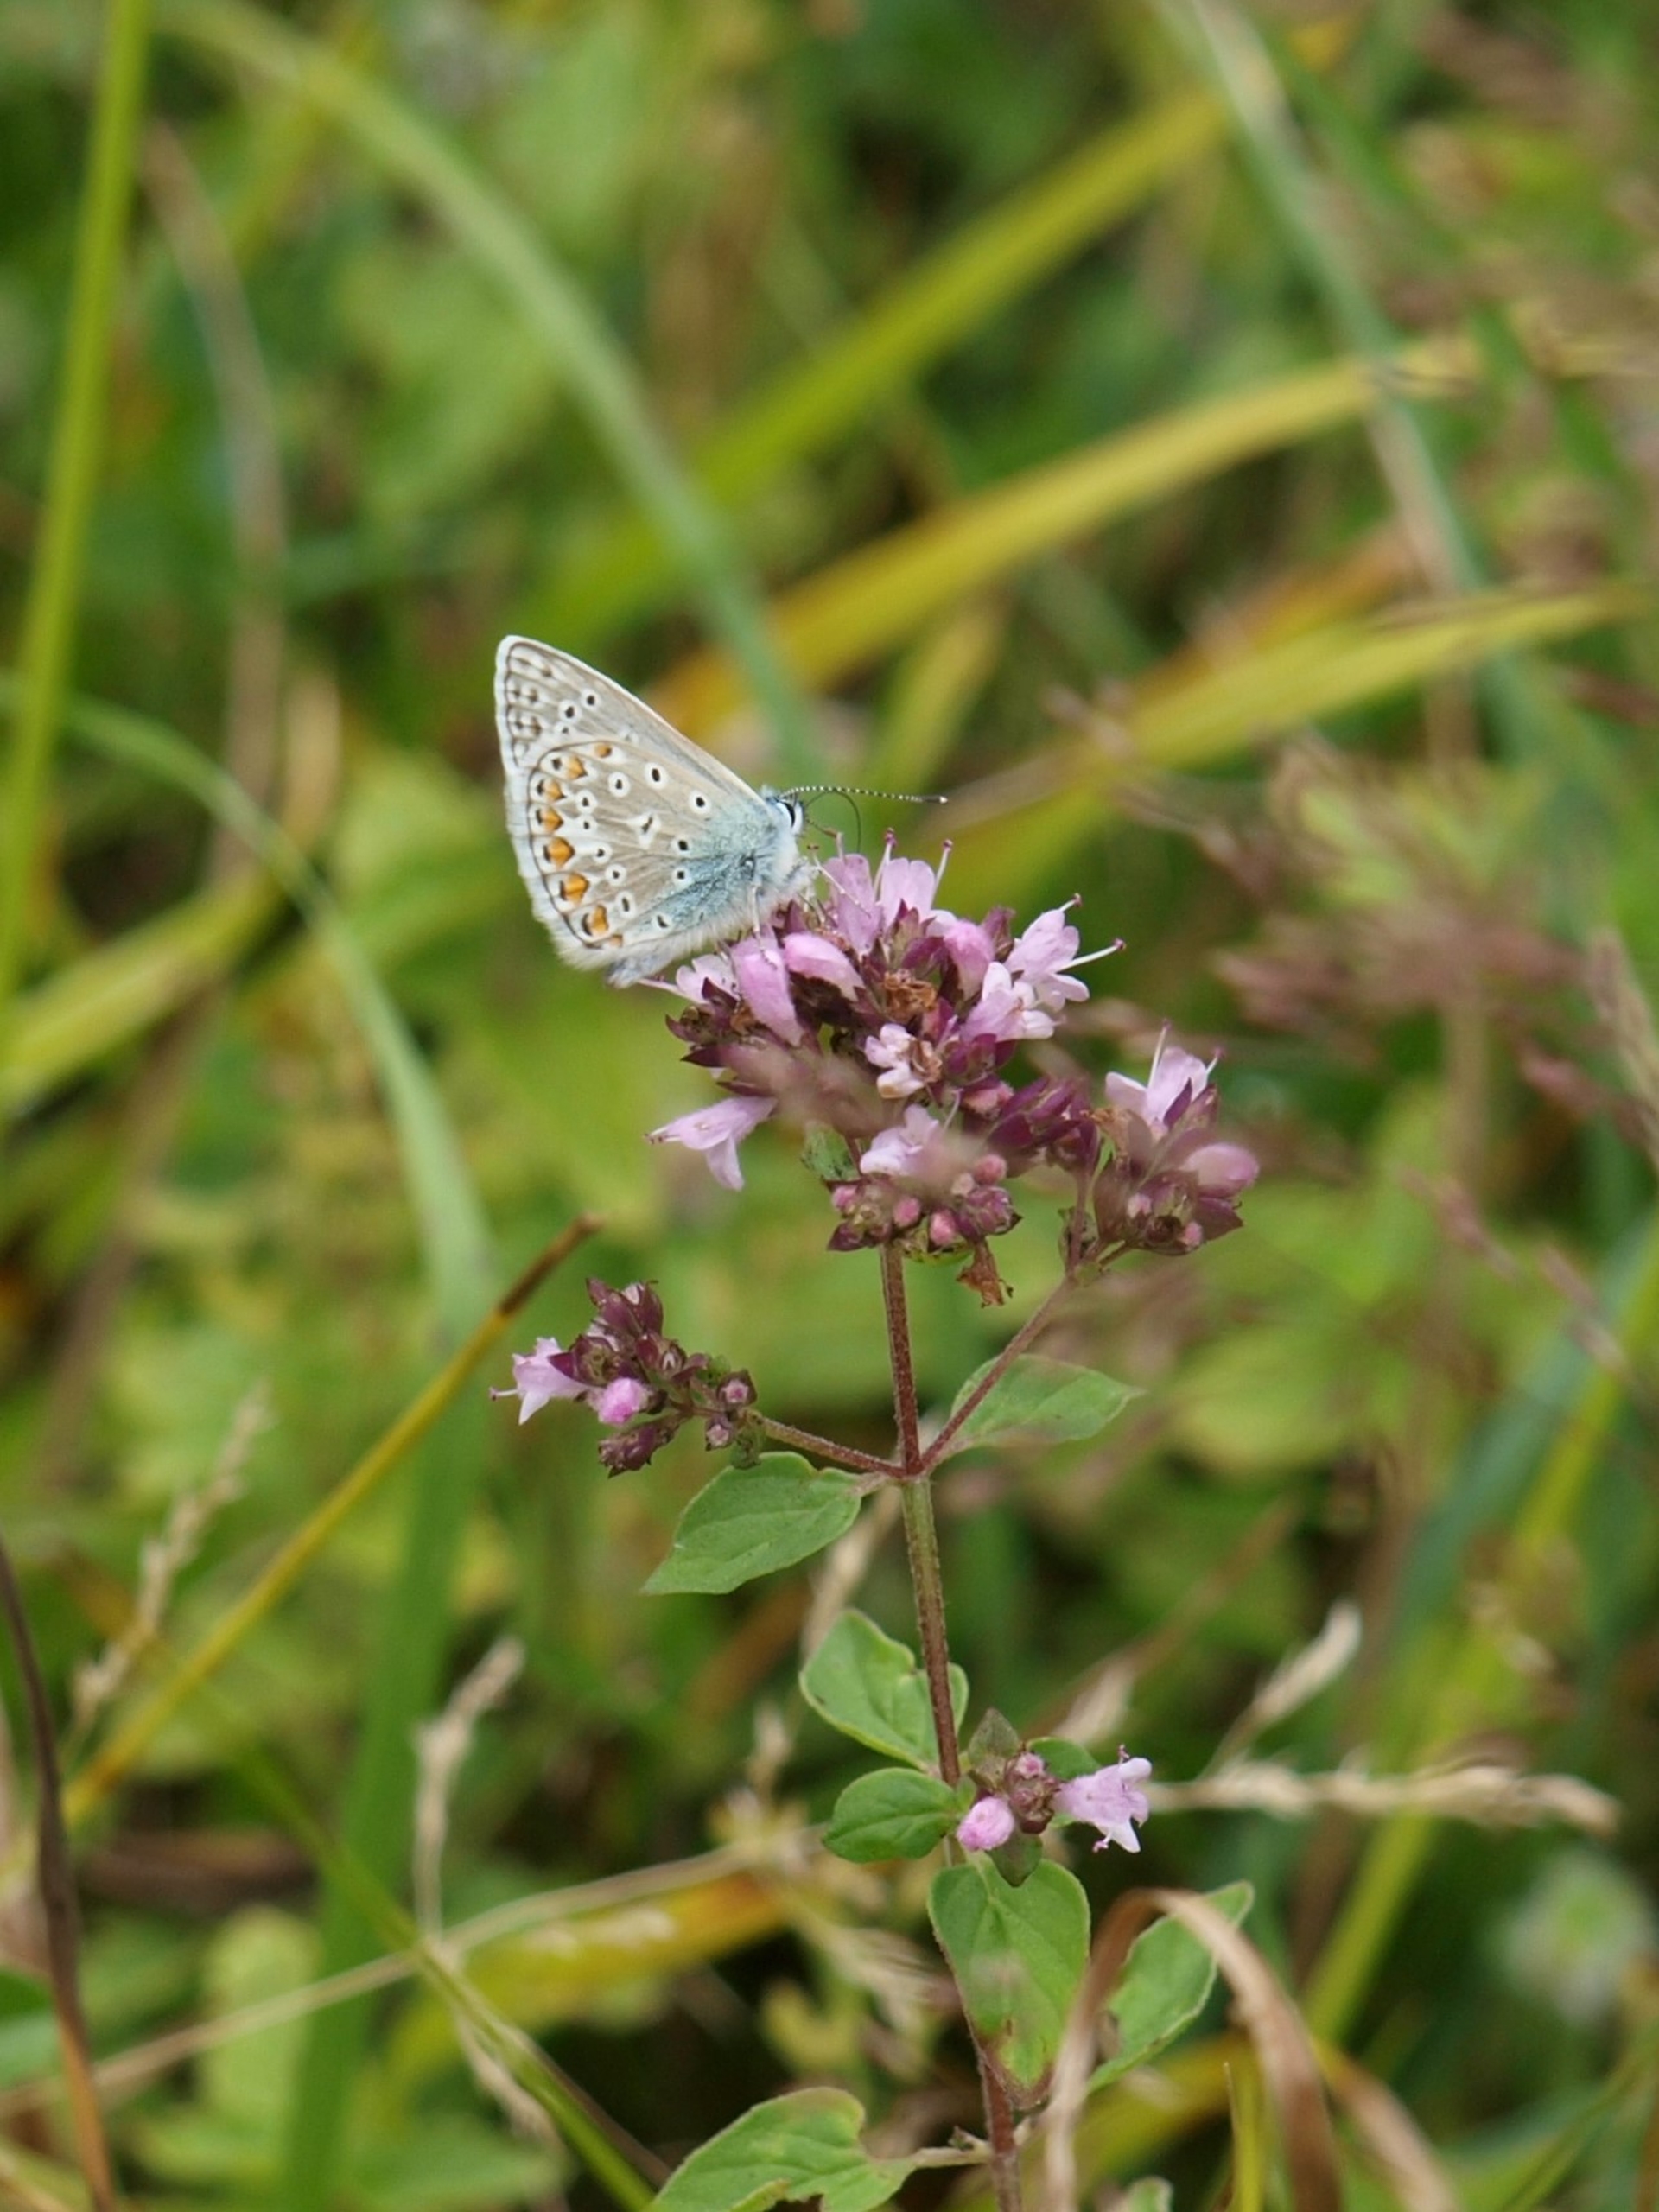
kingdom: Animalia
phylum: Arthropoda
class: Insecta
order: Lepidoptera
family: Lycaenidae
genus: Polyommatus
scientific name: Polyommatus icarus
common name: Almindelig blåfugl
